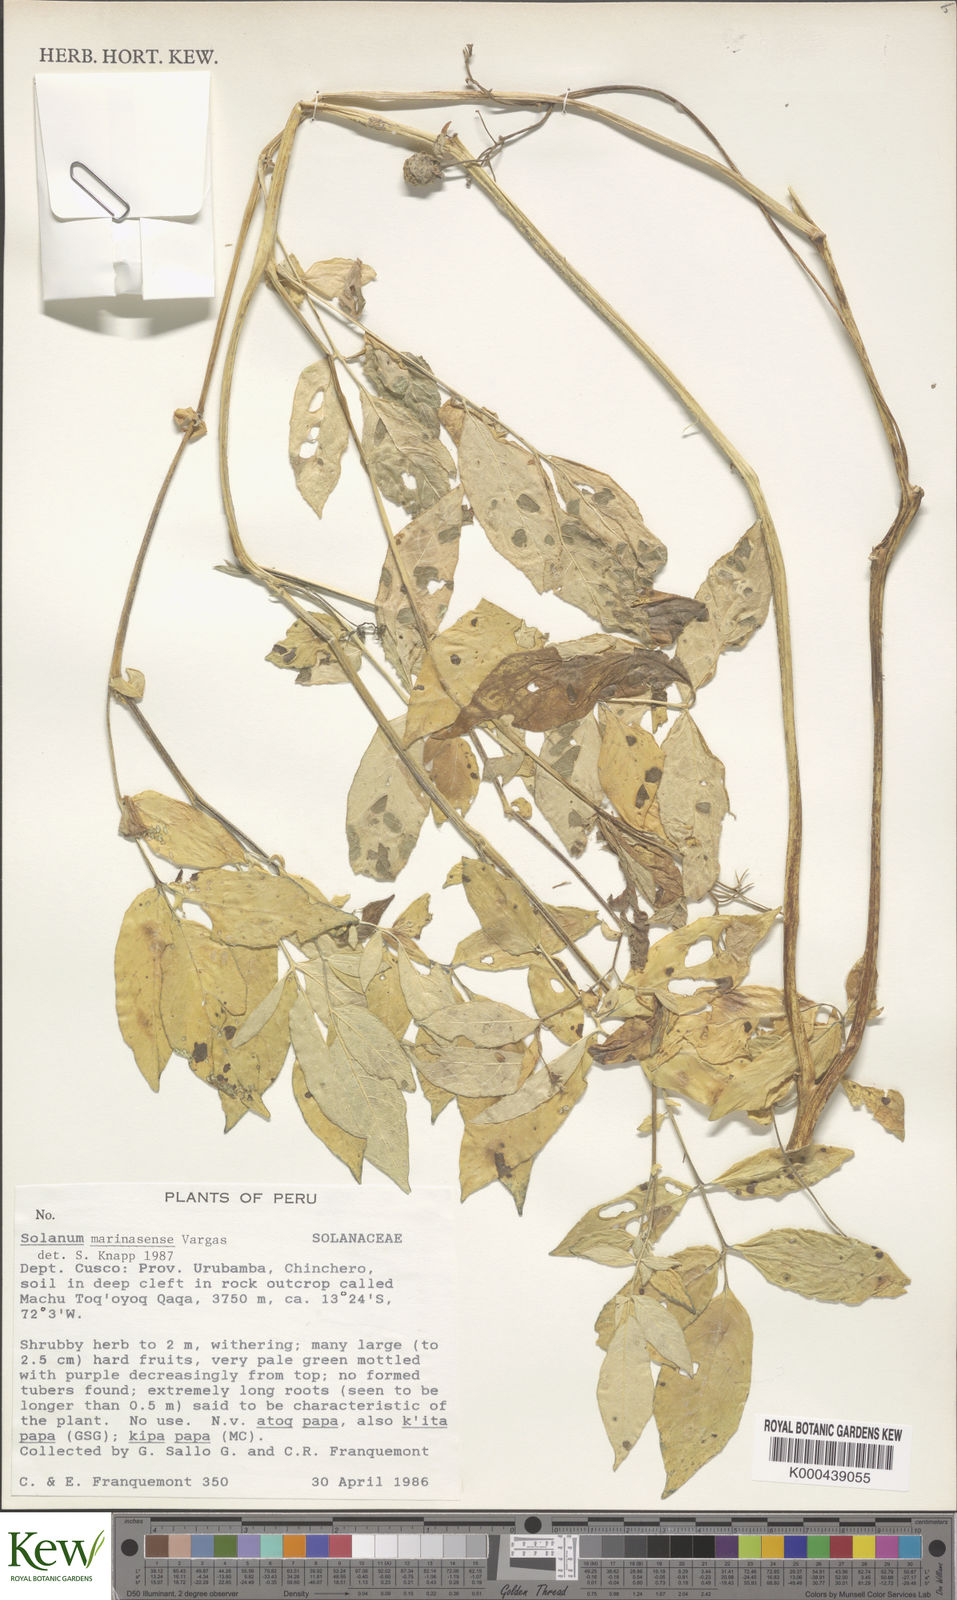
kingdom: Plantae
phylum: Tracheophyta
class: Magnoliopsida
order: Solanales
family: Solanaceae
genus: Solanum
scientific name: Solanum candolleanum
